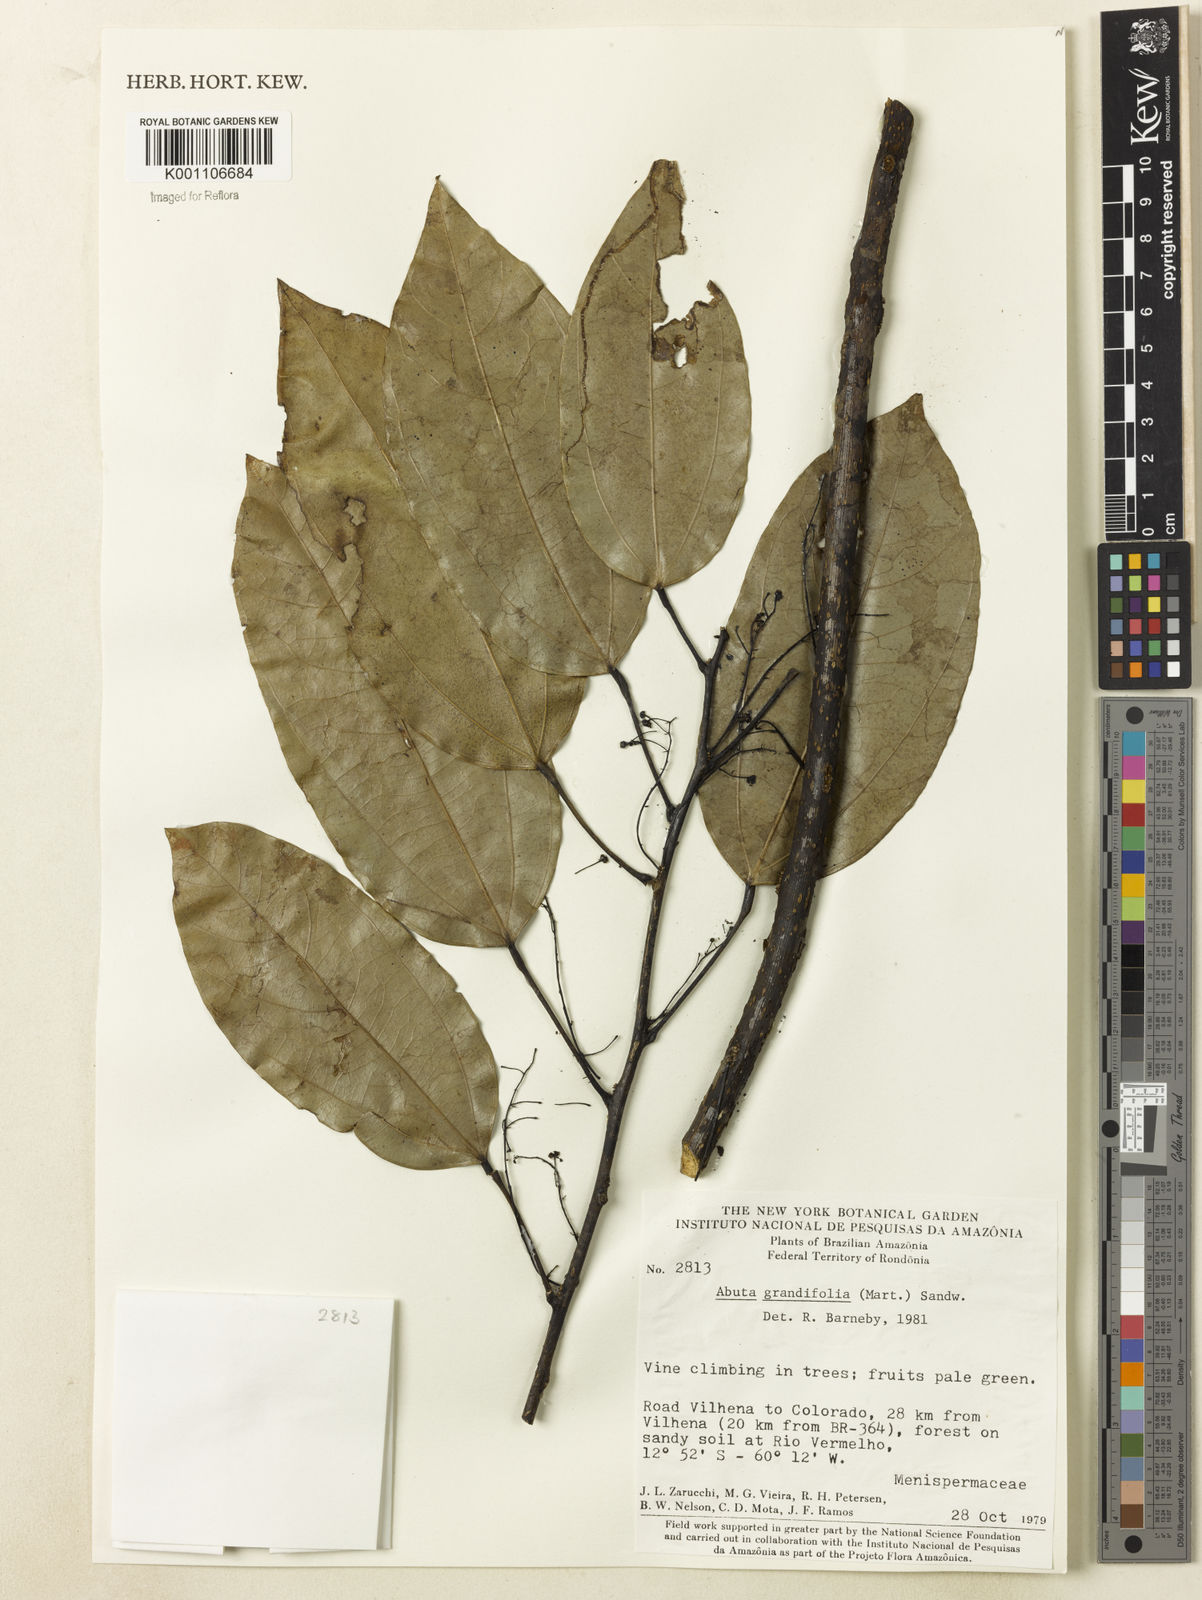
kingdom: Plantae
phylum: Tracheophyta
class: Magnoliopsida
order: Ranunculales
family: Menispermaceae
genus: Abuta
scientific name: Abuta grandifolia
